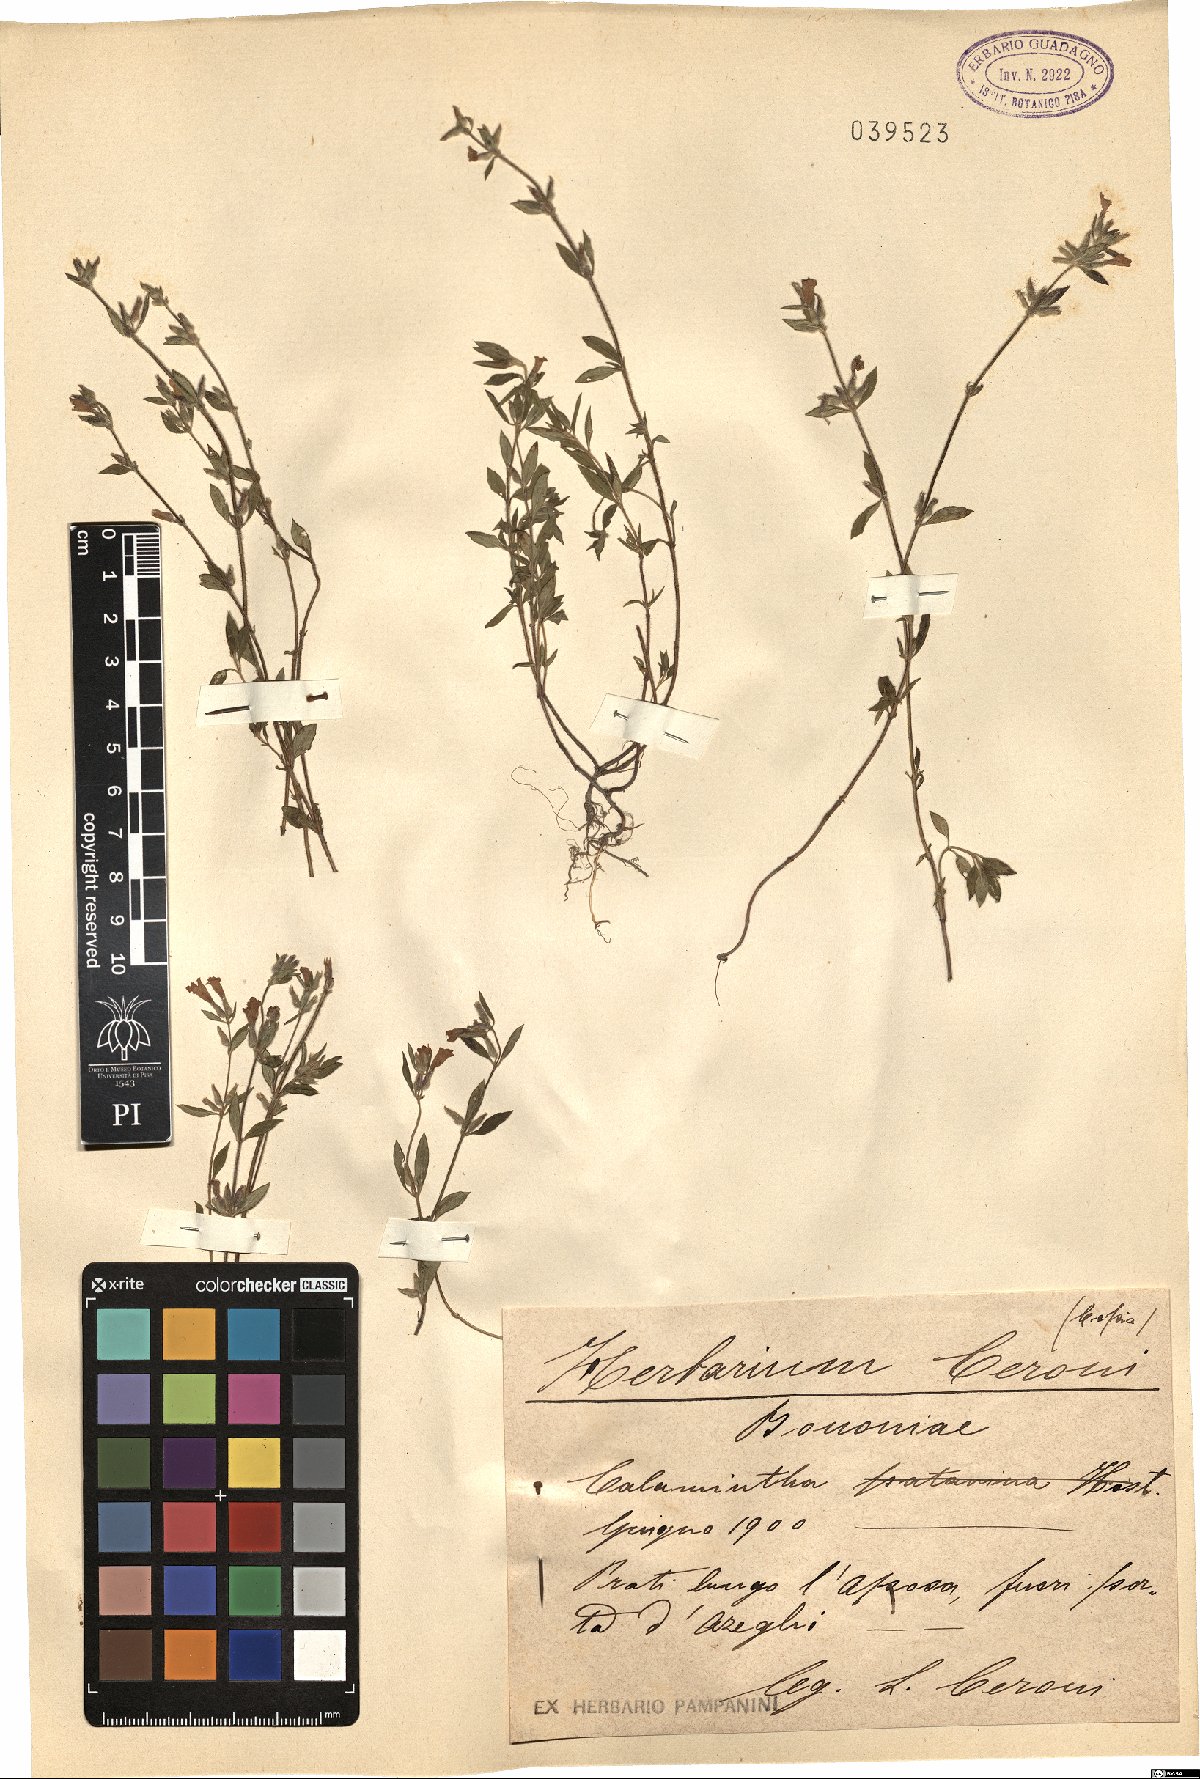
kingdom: Plantae
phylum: Tracheophyta
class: Magnoliopsida
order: Lamiales
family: Lamiaceae
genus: Calamintha
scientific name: Calamintha
